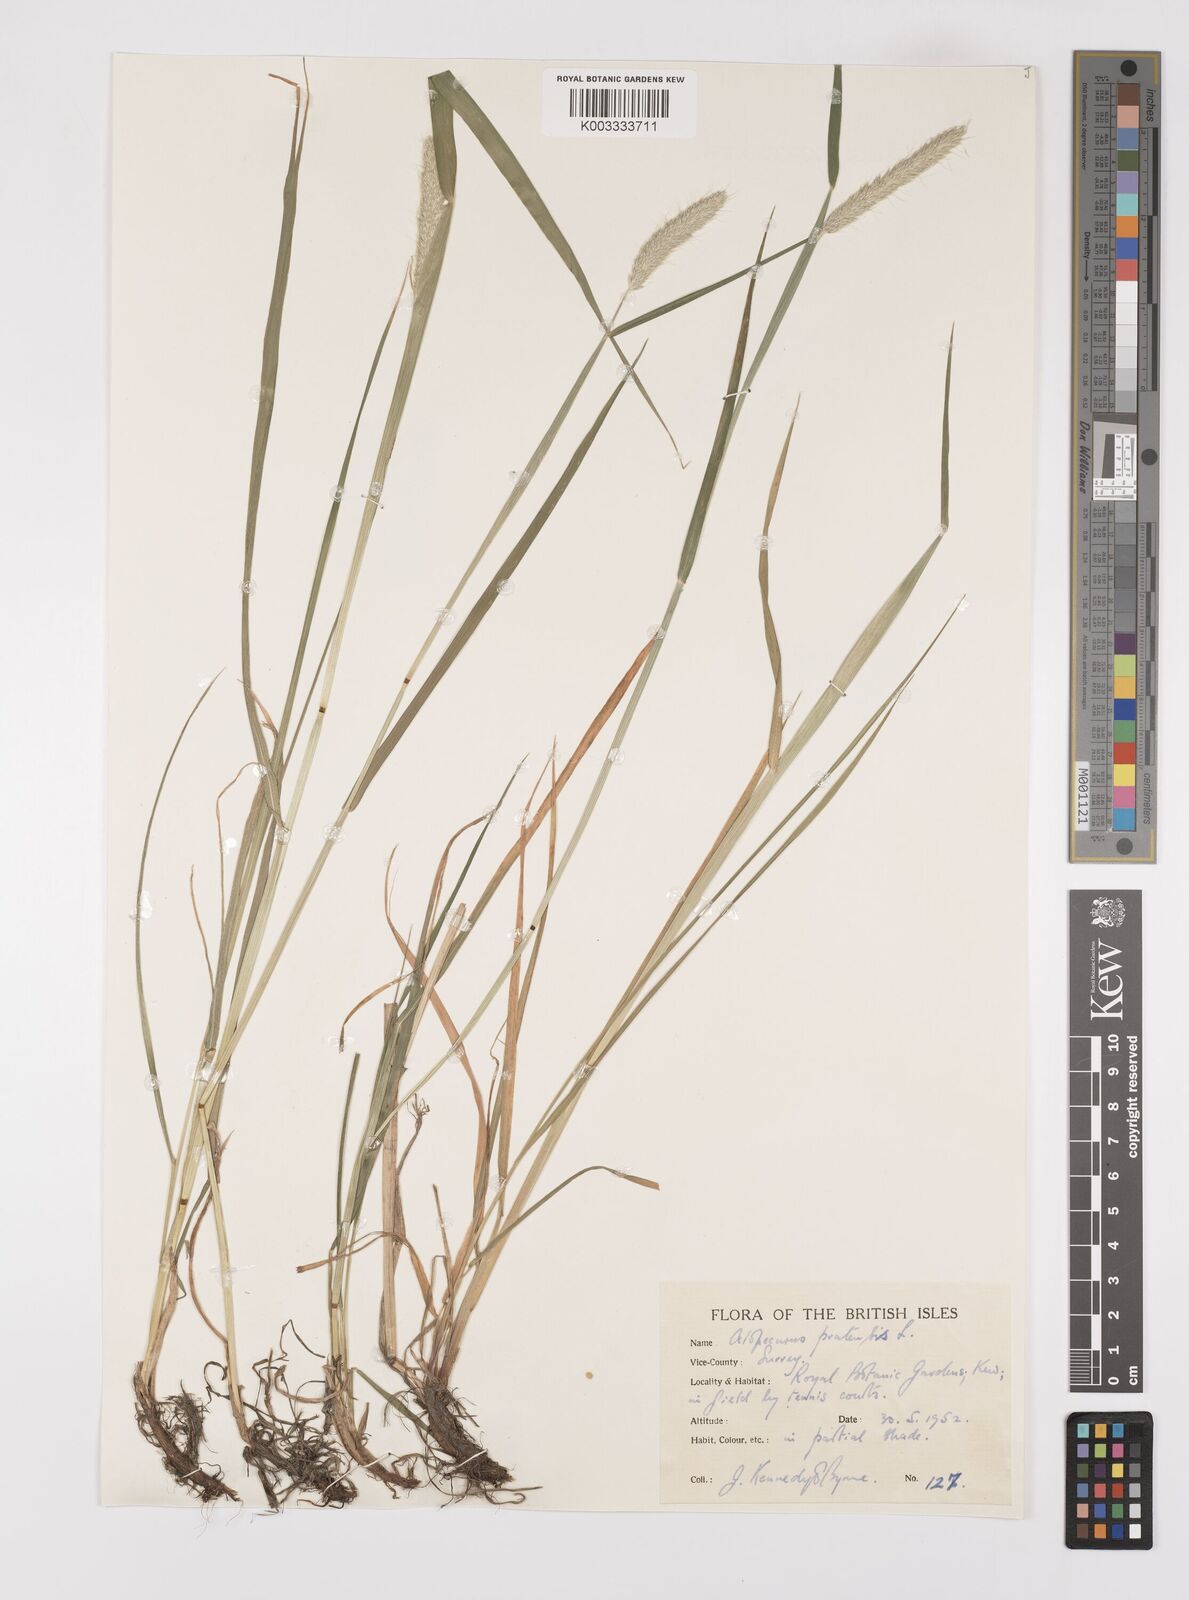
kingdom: Plantae
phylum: Tracheophyta
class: Liliopsida
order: Poales
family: Poaceae
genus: Alopecurus
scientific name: Alopecurus pratensis
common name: Meadow foxtail
